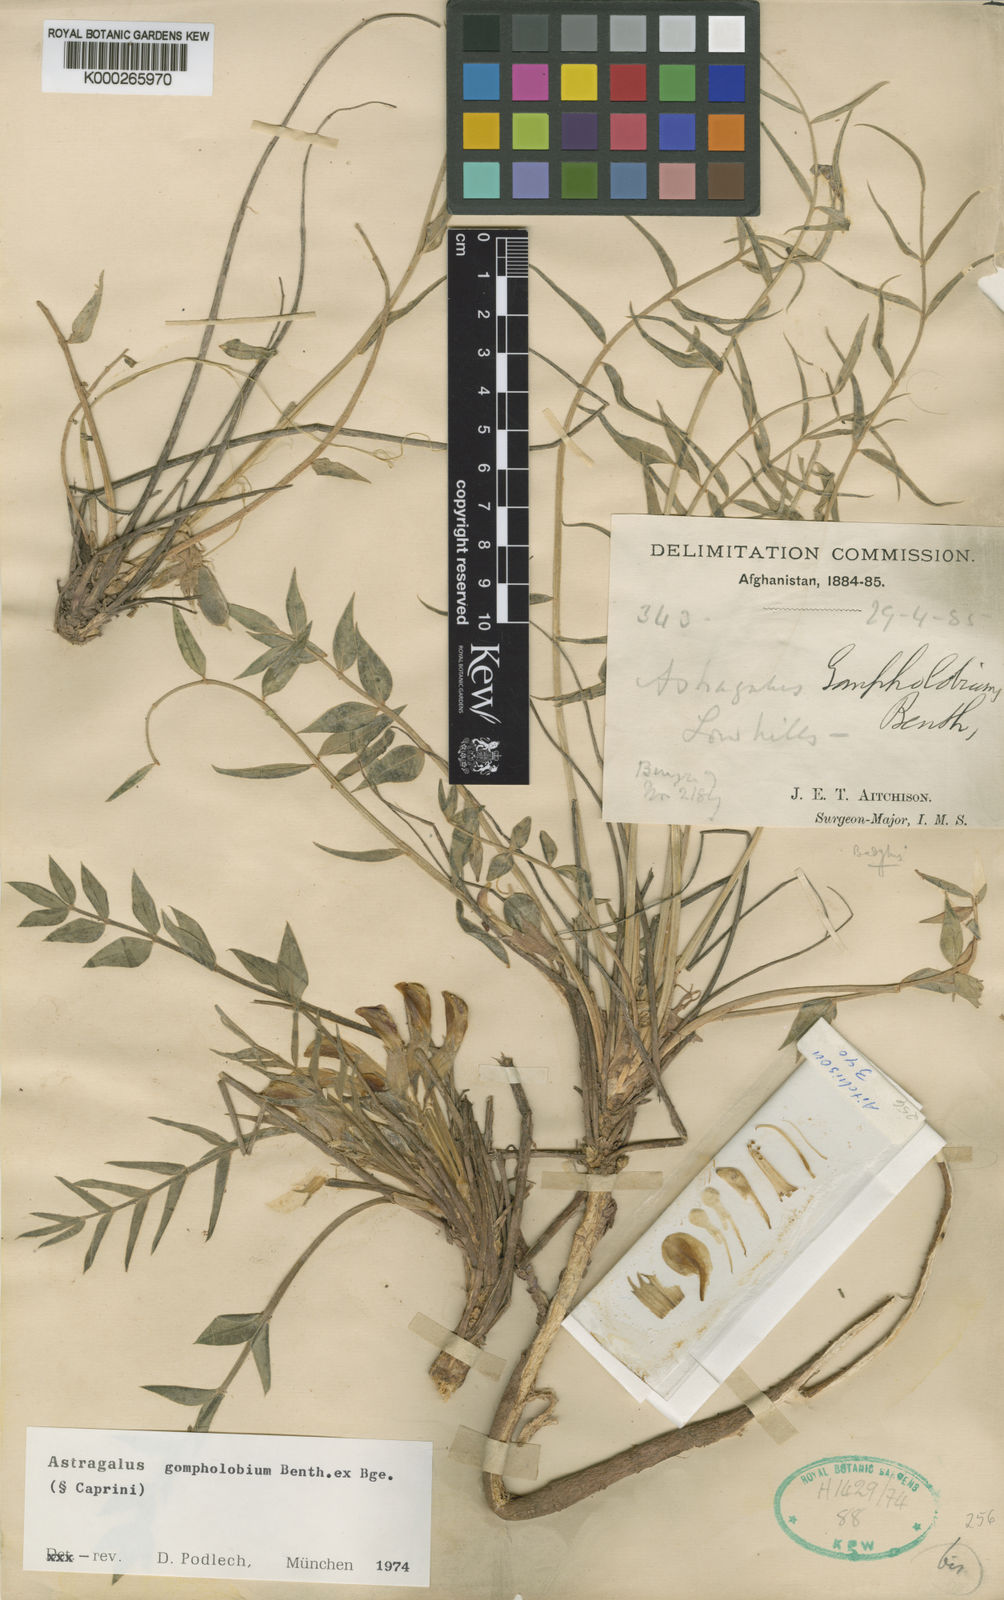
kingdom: Plantae
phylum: Tracheophyta
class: Magnoliopsida
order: Fabales
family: Fabaceae
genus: Astragalus
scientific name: Astragalus gompholobium
